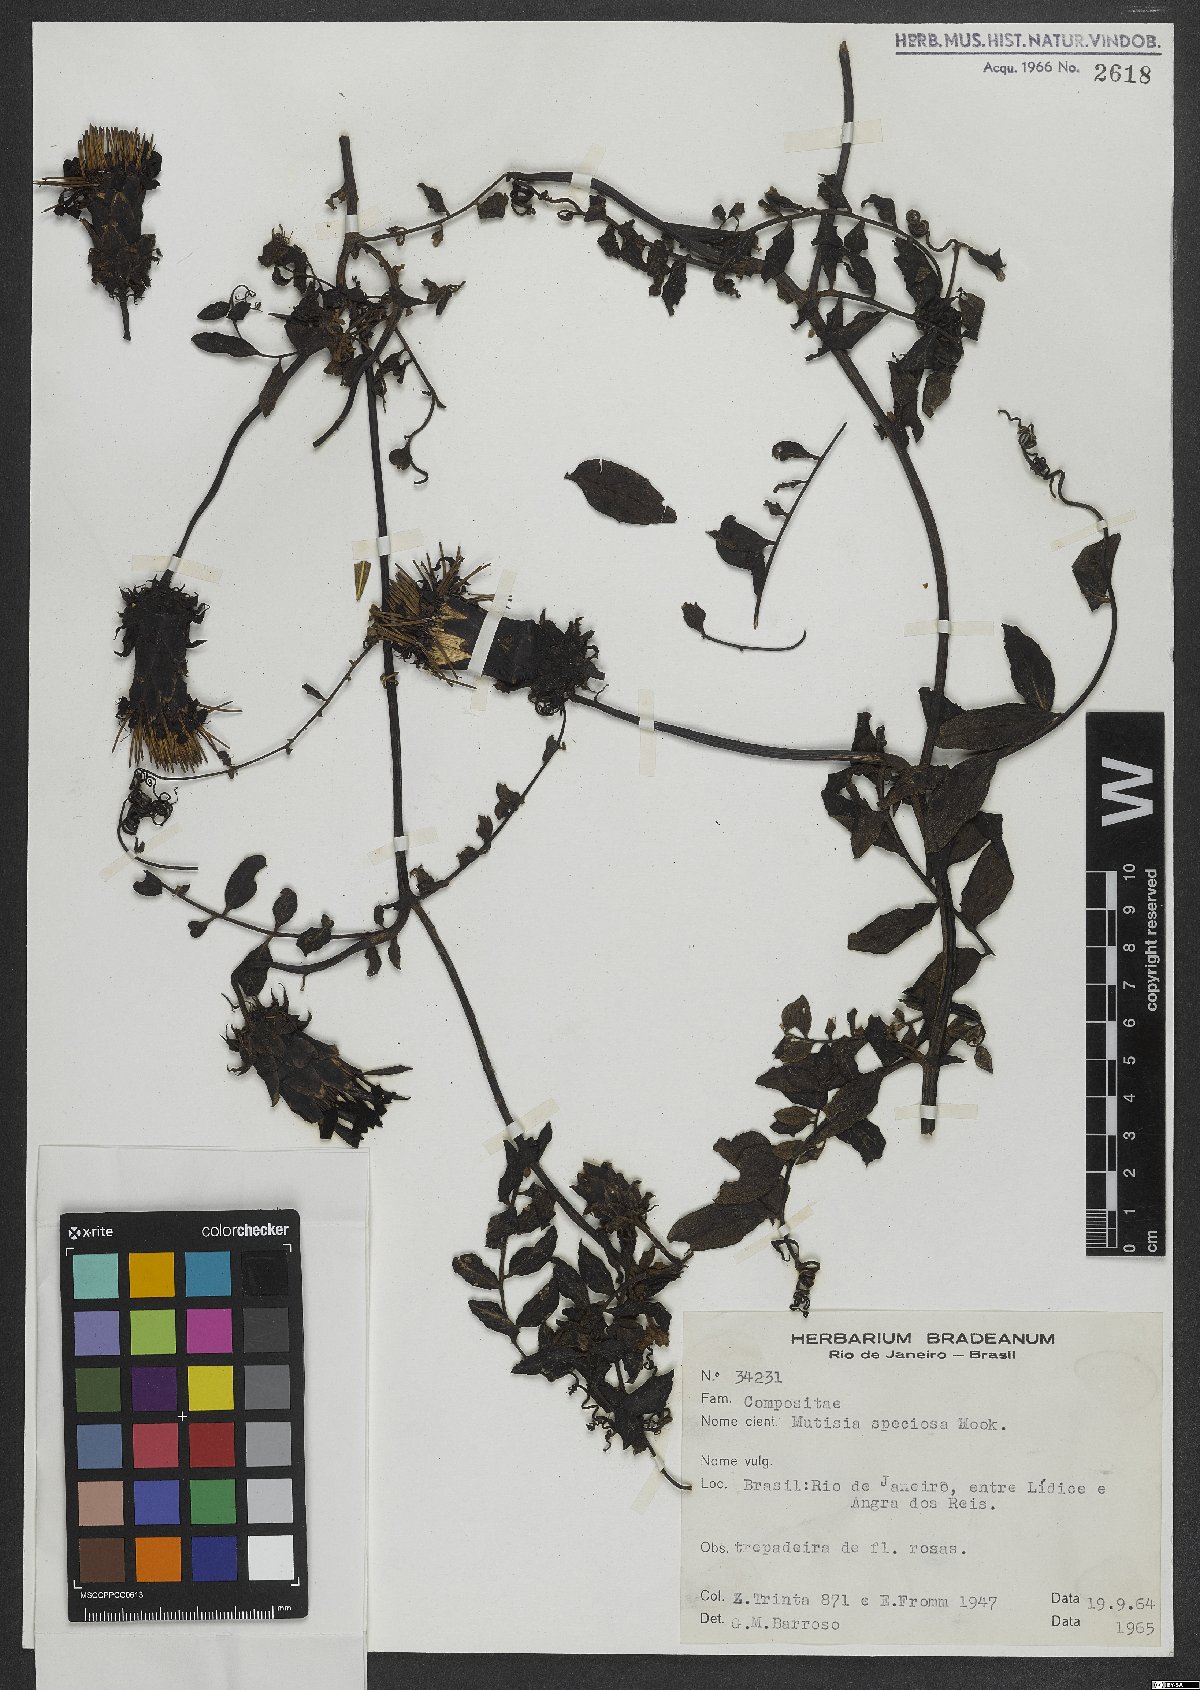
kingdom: Plantae
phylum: Tracheophyta
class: Magnoliopsida
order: Asterales
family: Asteraceae
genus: Mutisia
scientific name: Mutisia speciosa
